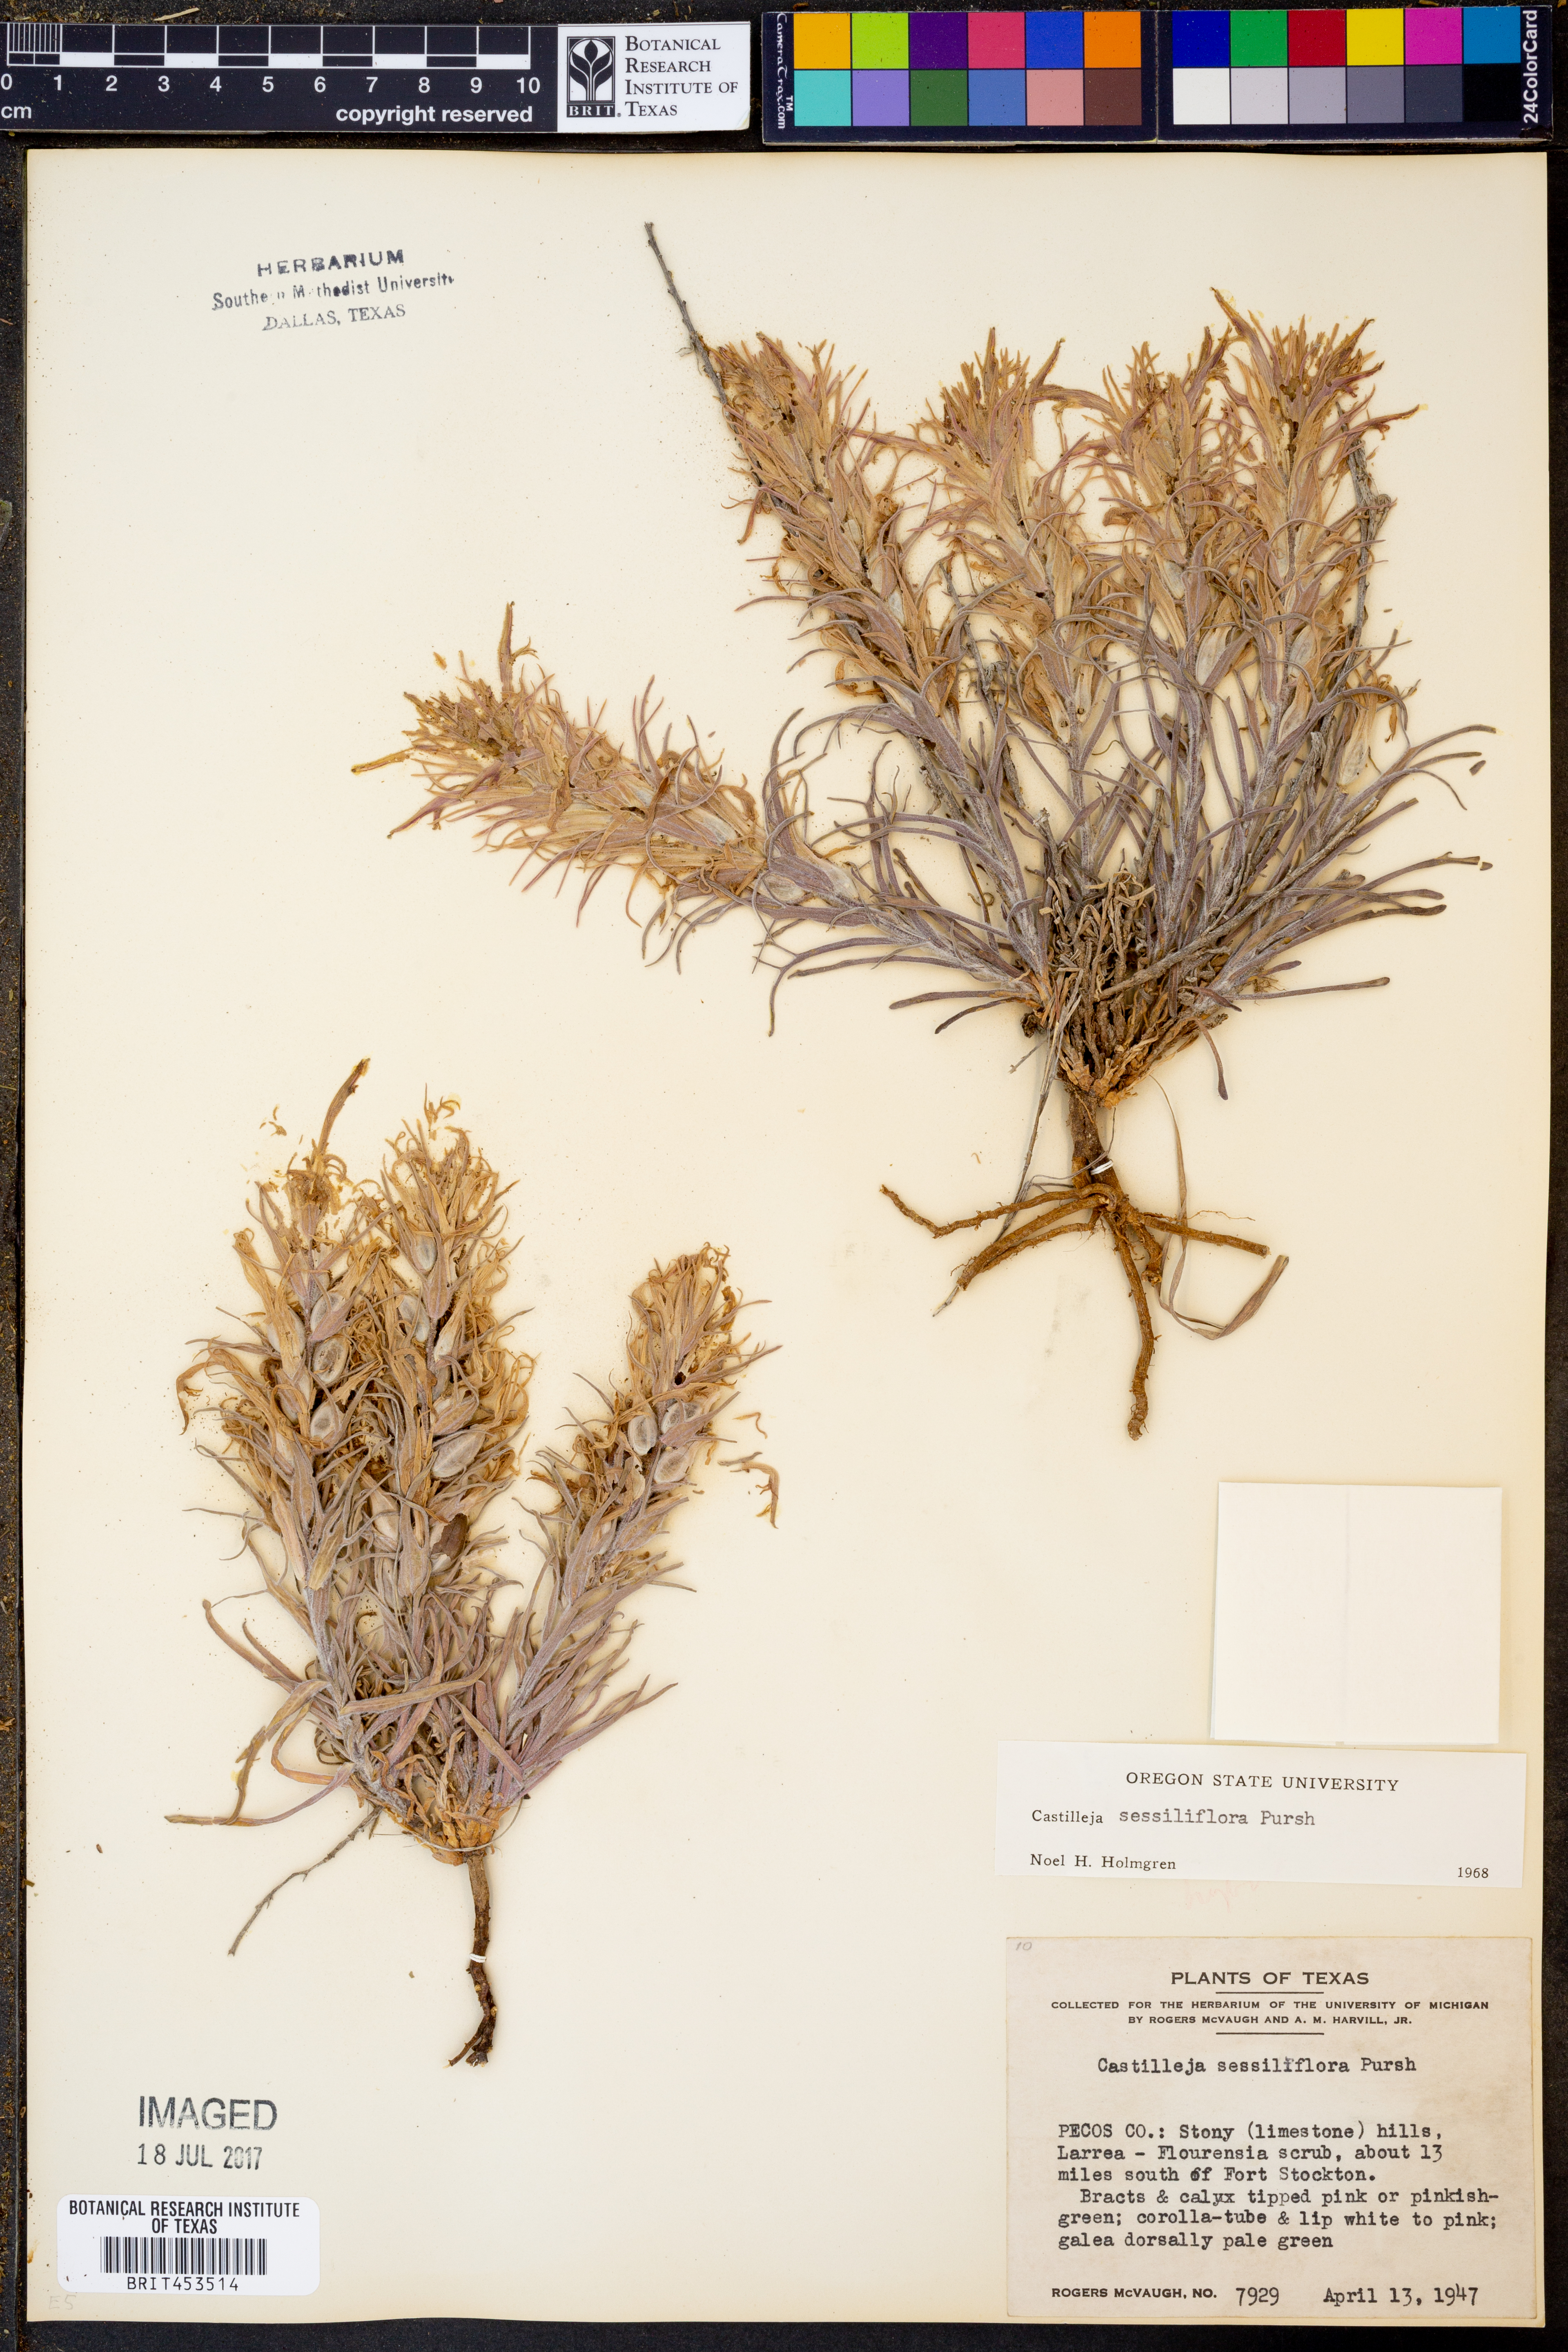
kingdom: Plantae
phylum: Tracheophyta
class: Magnoliopsida
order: Lamiales
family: Orobanchaceae
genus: Castilleja
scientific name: Castilleja sessiliflora
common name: Downy paintbrush
